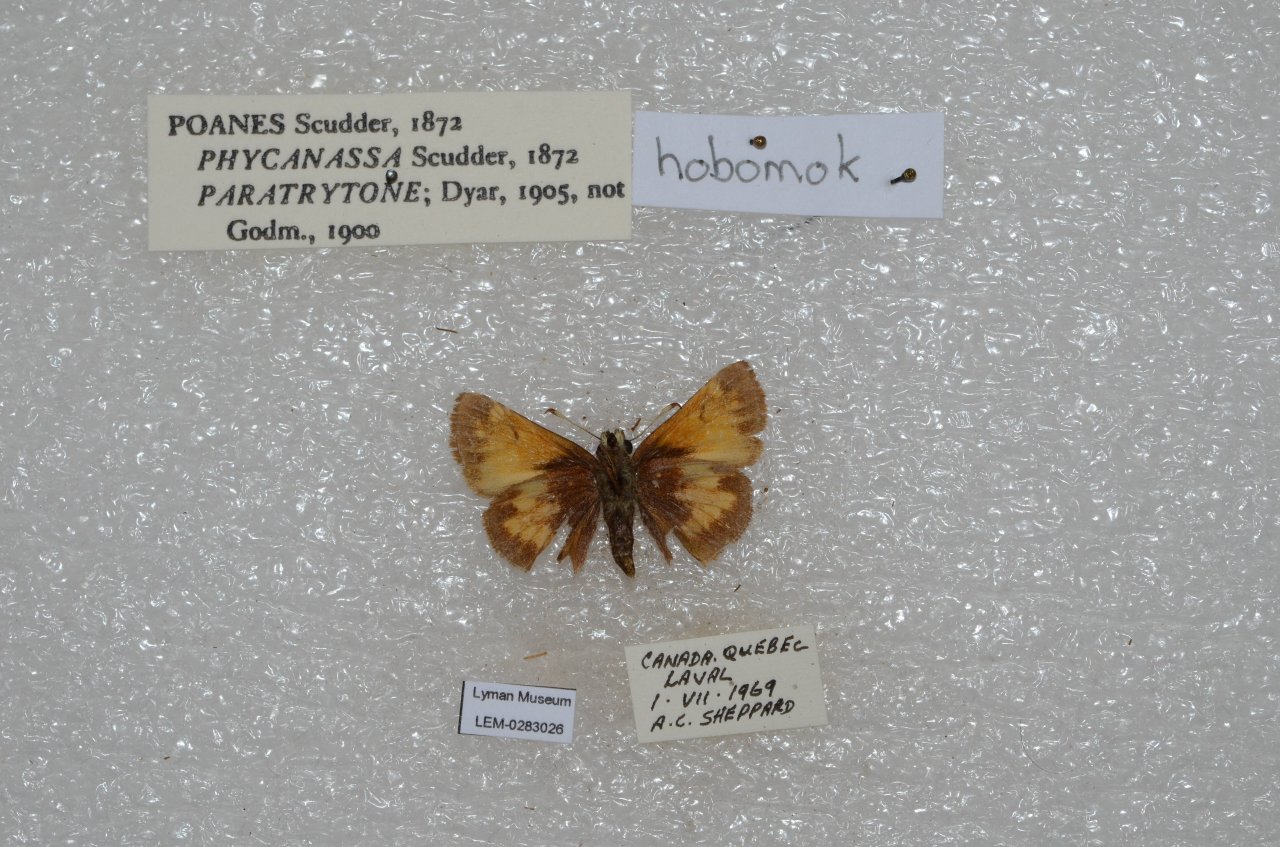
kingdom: Animalia
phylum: Arthropoda
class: Insecta
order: Lepidoptera
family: Hesperiidae
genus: Lon
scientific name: Lon hobomok
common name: Hobomok Skipper
